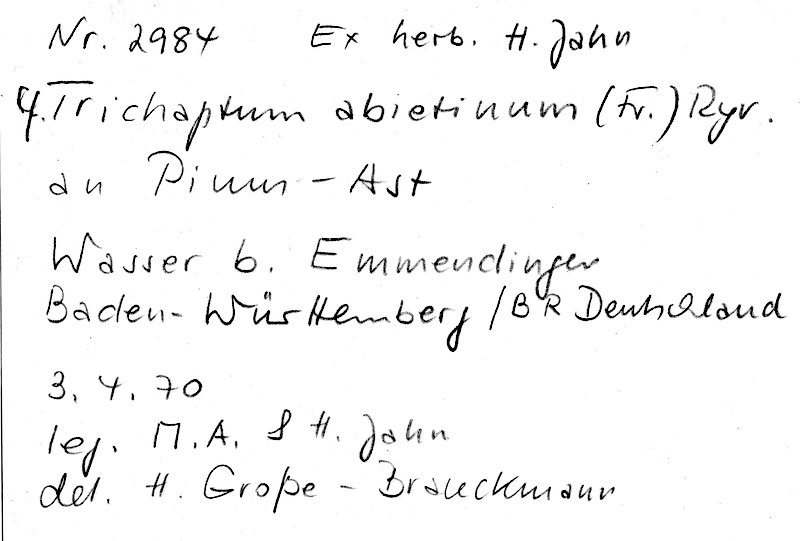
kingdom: Fungi
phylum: Basidiomycota
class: Agaricomycetes
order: Hymenochaetales
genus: Trichaptum
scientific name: Trichaptum abietinum
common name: Purplepore bracket
